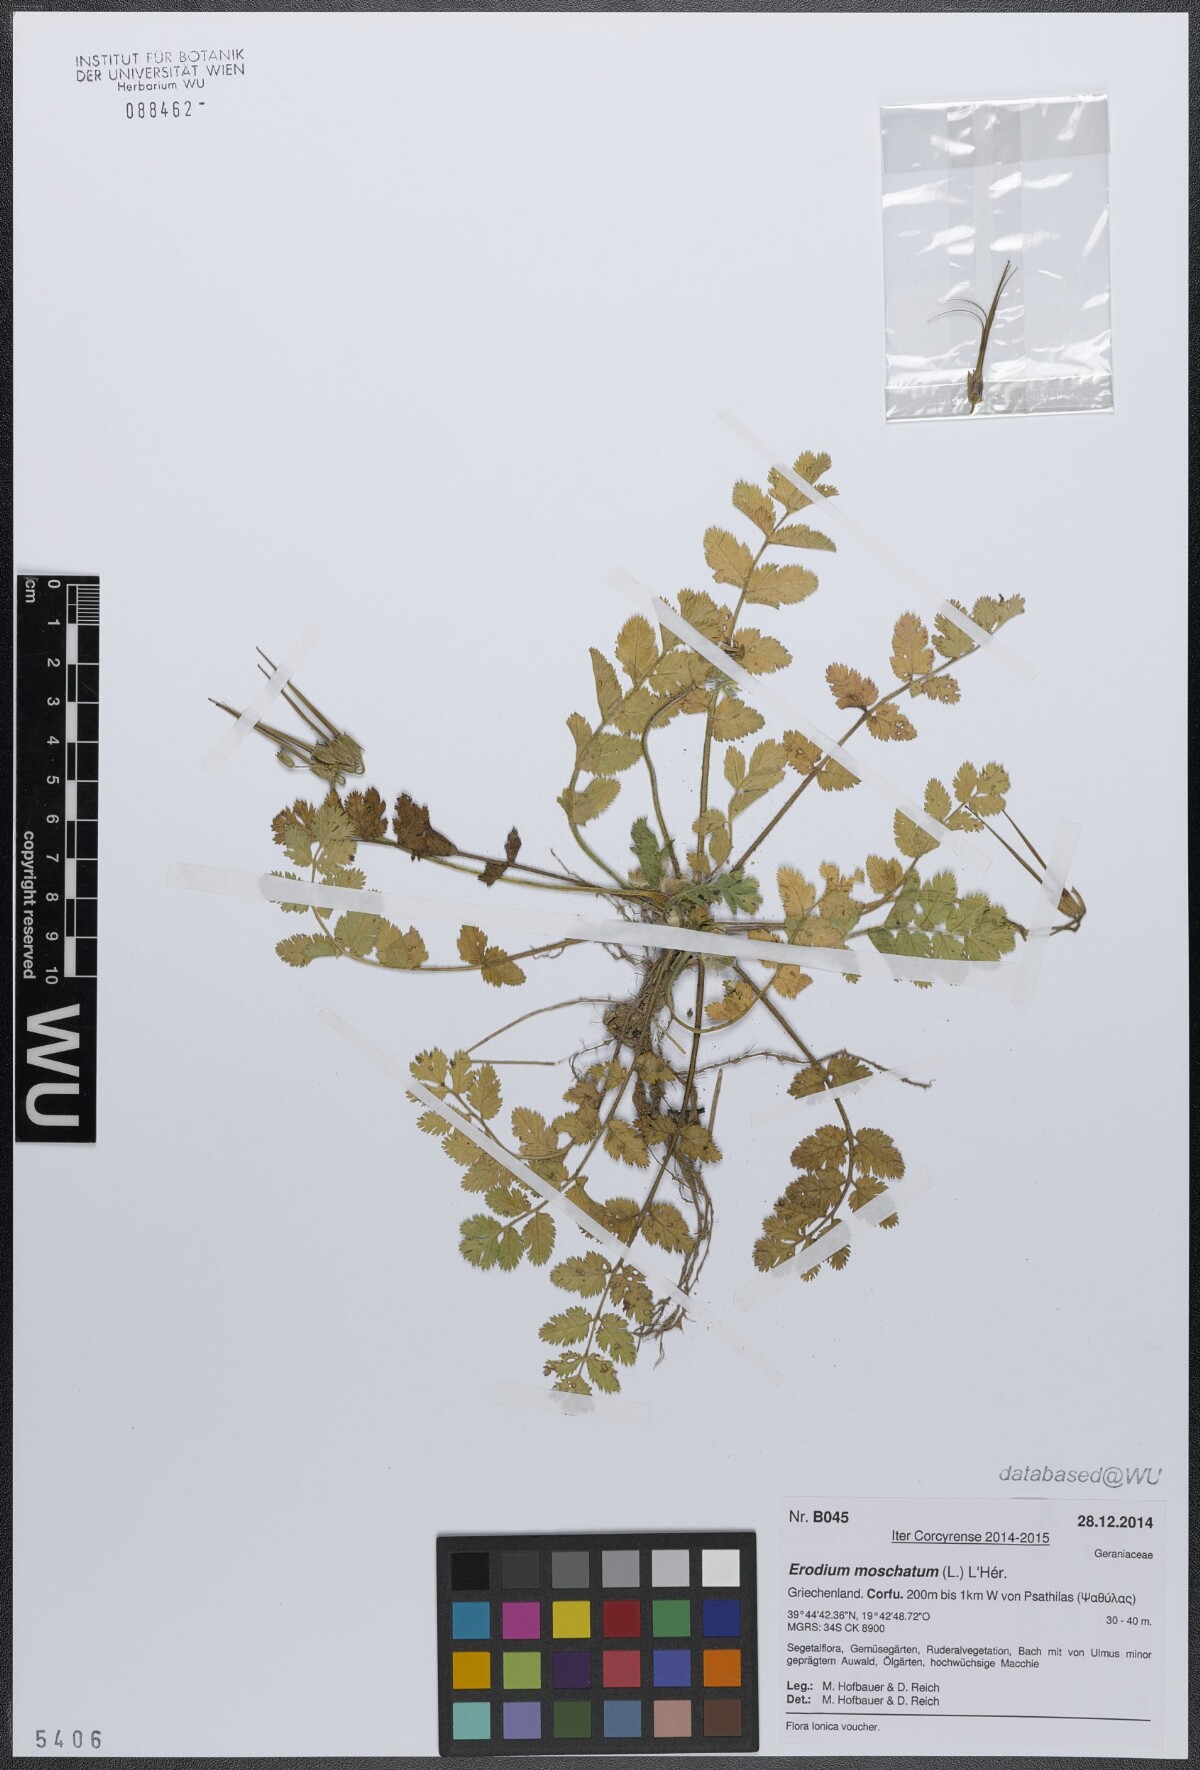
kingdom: Plantae
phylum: Tracheophyta
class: Magnoliopsida
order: Geraniales
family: Geraniaceae
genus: Erodium
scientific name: Erodium moschatum
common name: Musk stork's-bill
